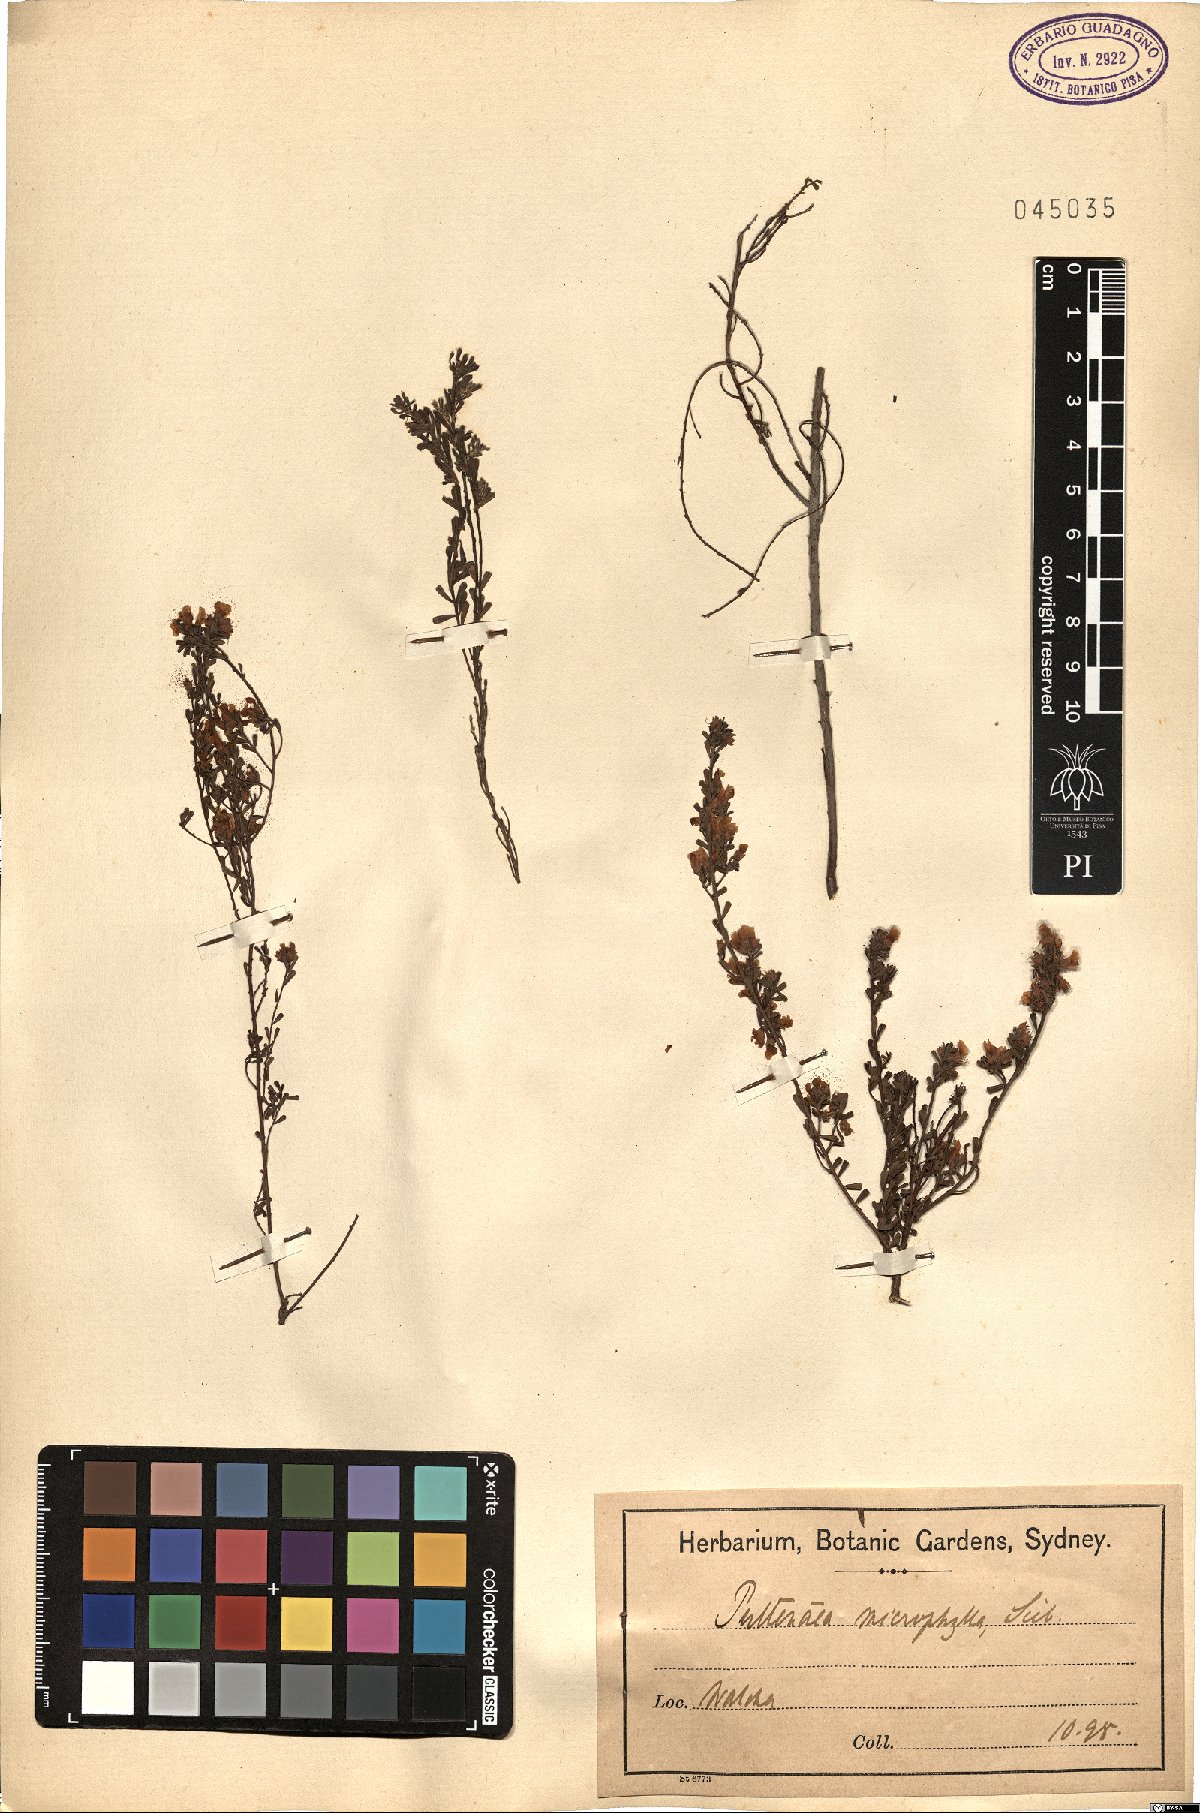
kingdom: Plantae
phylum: Tracheophyta
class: Magnoliopsida
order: Fabales
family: Fabaceae
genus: Pultenaea
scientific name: Pultenaea microphylla
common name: Spreading bush-pea
